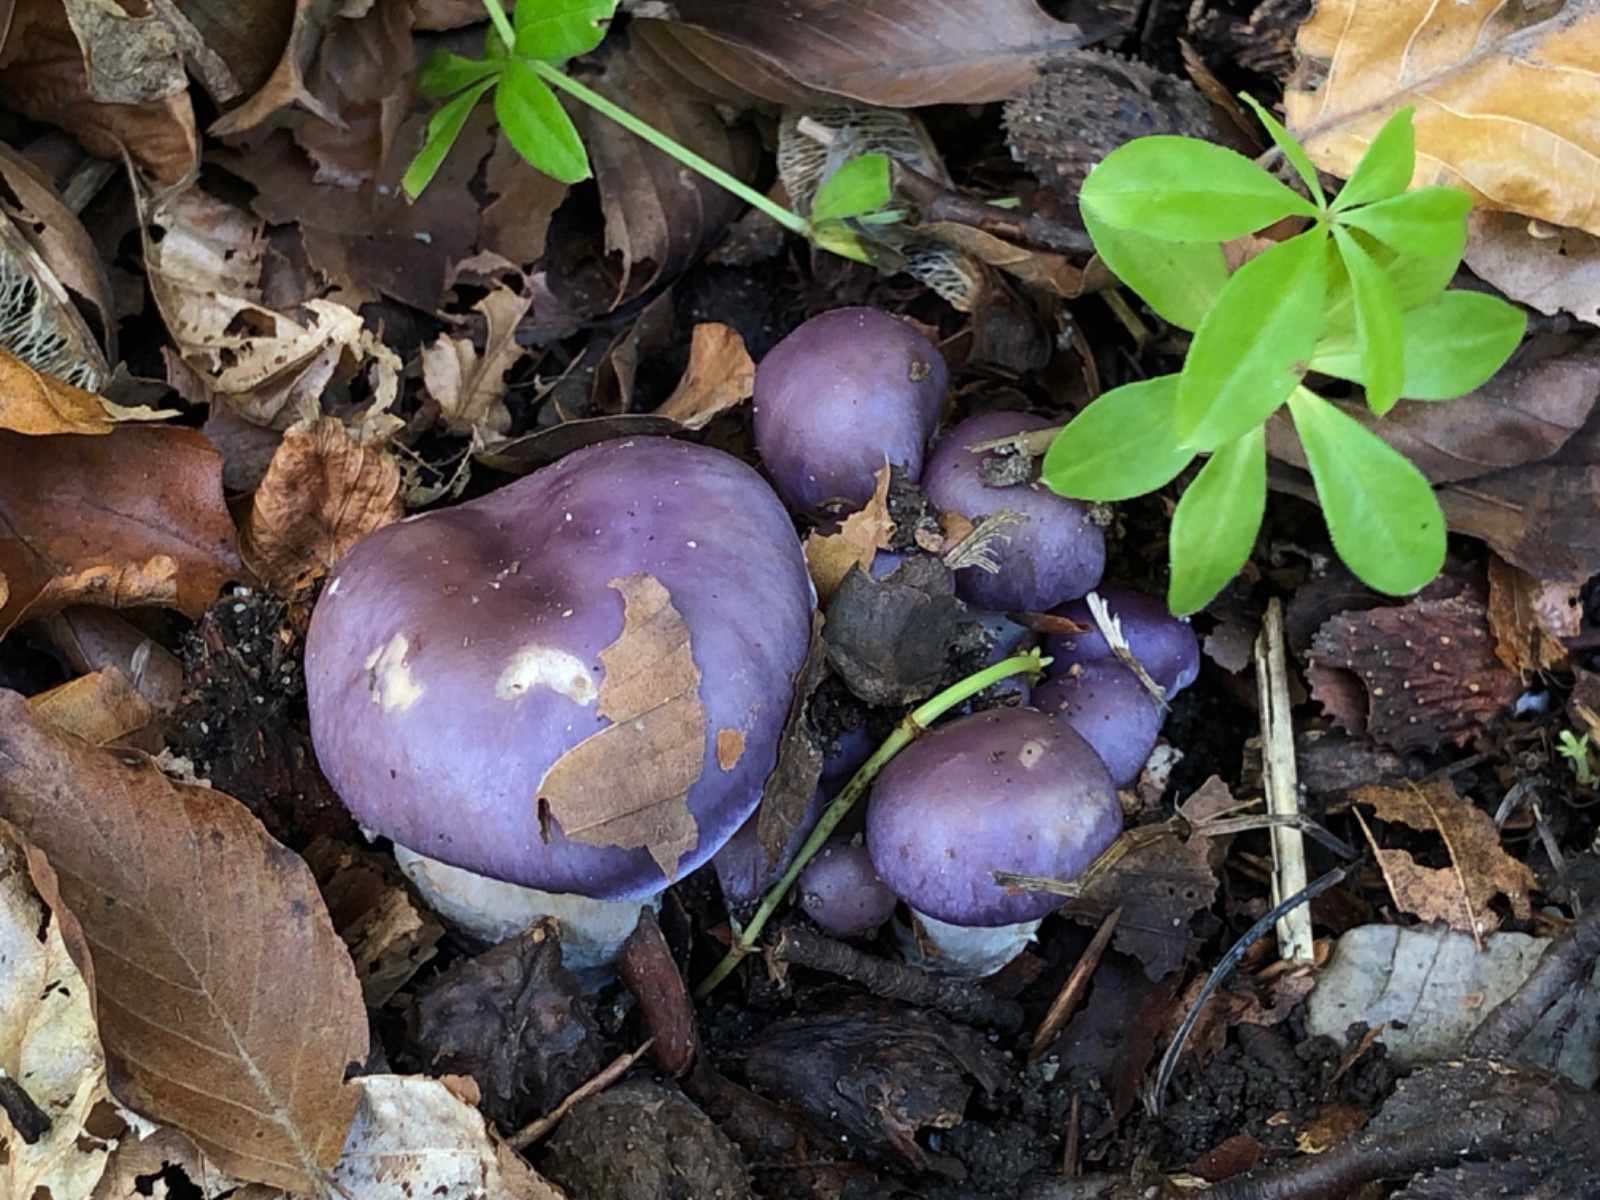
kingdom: Fungi
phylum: Basidiomycota
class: Agaricomycetes
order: Agaricales
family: Cortinariaceae
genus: Thaxterogaster
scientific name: Thaxterogaster croceocoeruleus
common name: blågullig slørhat
